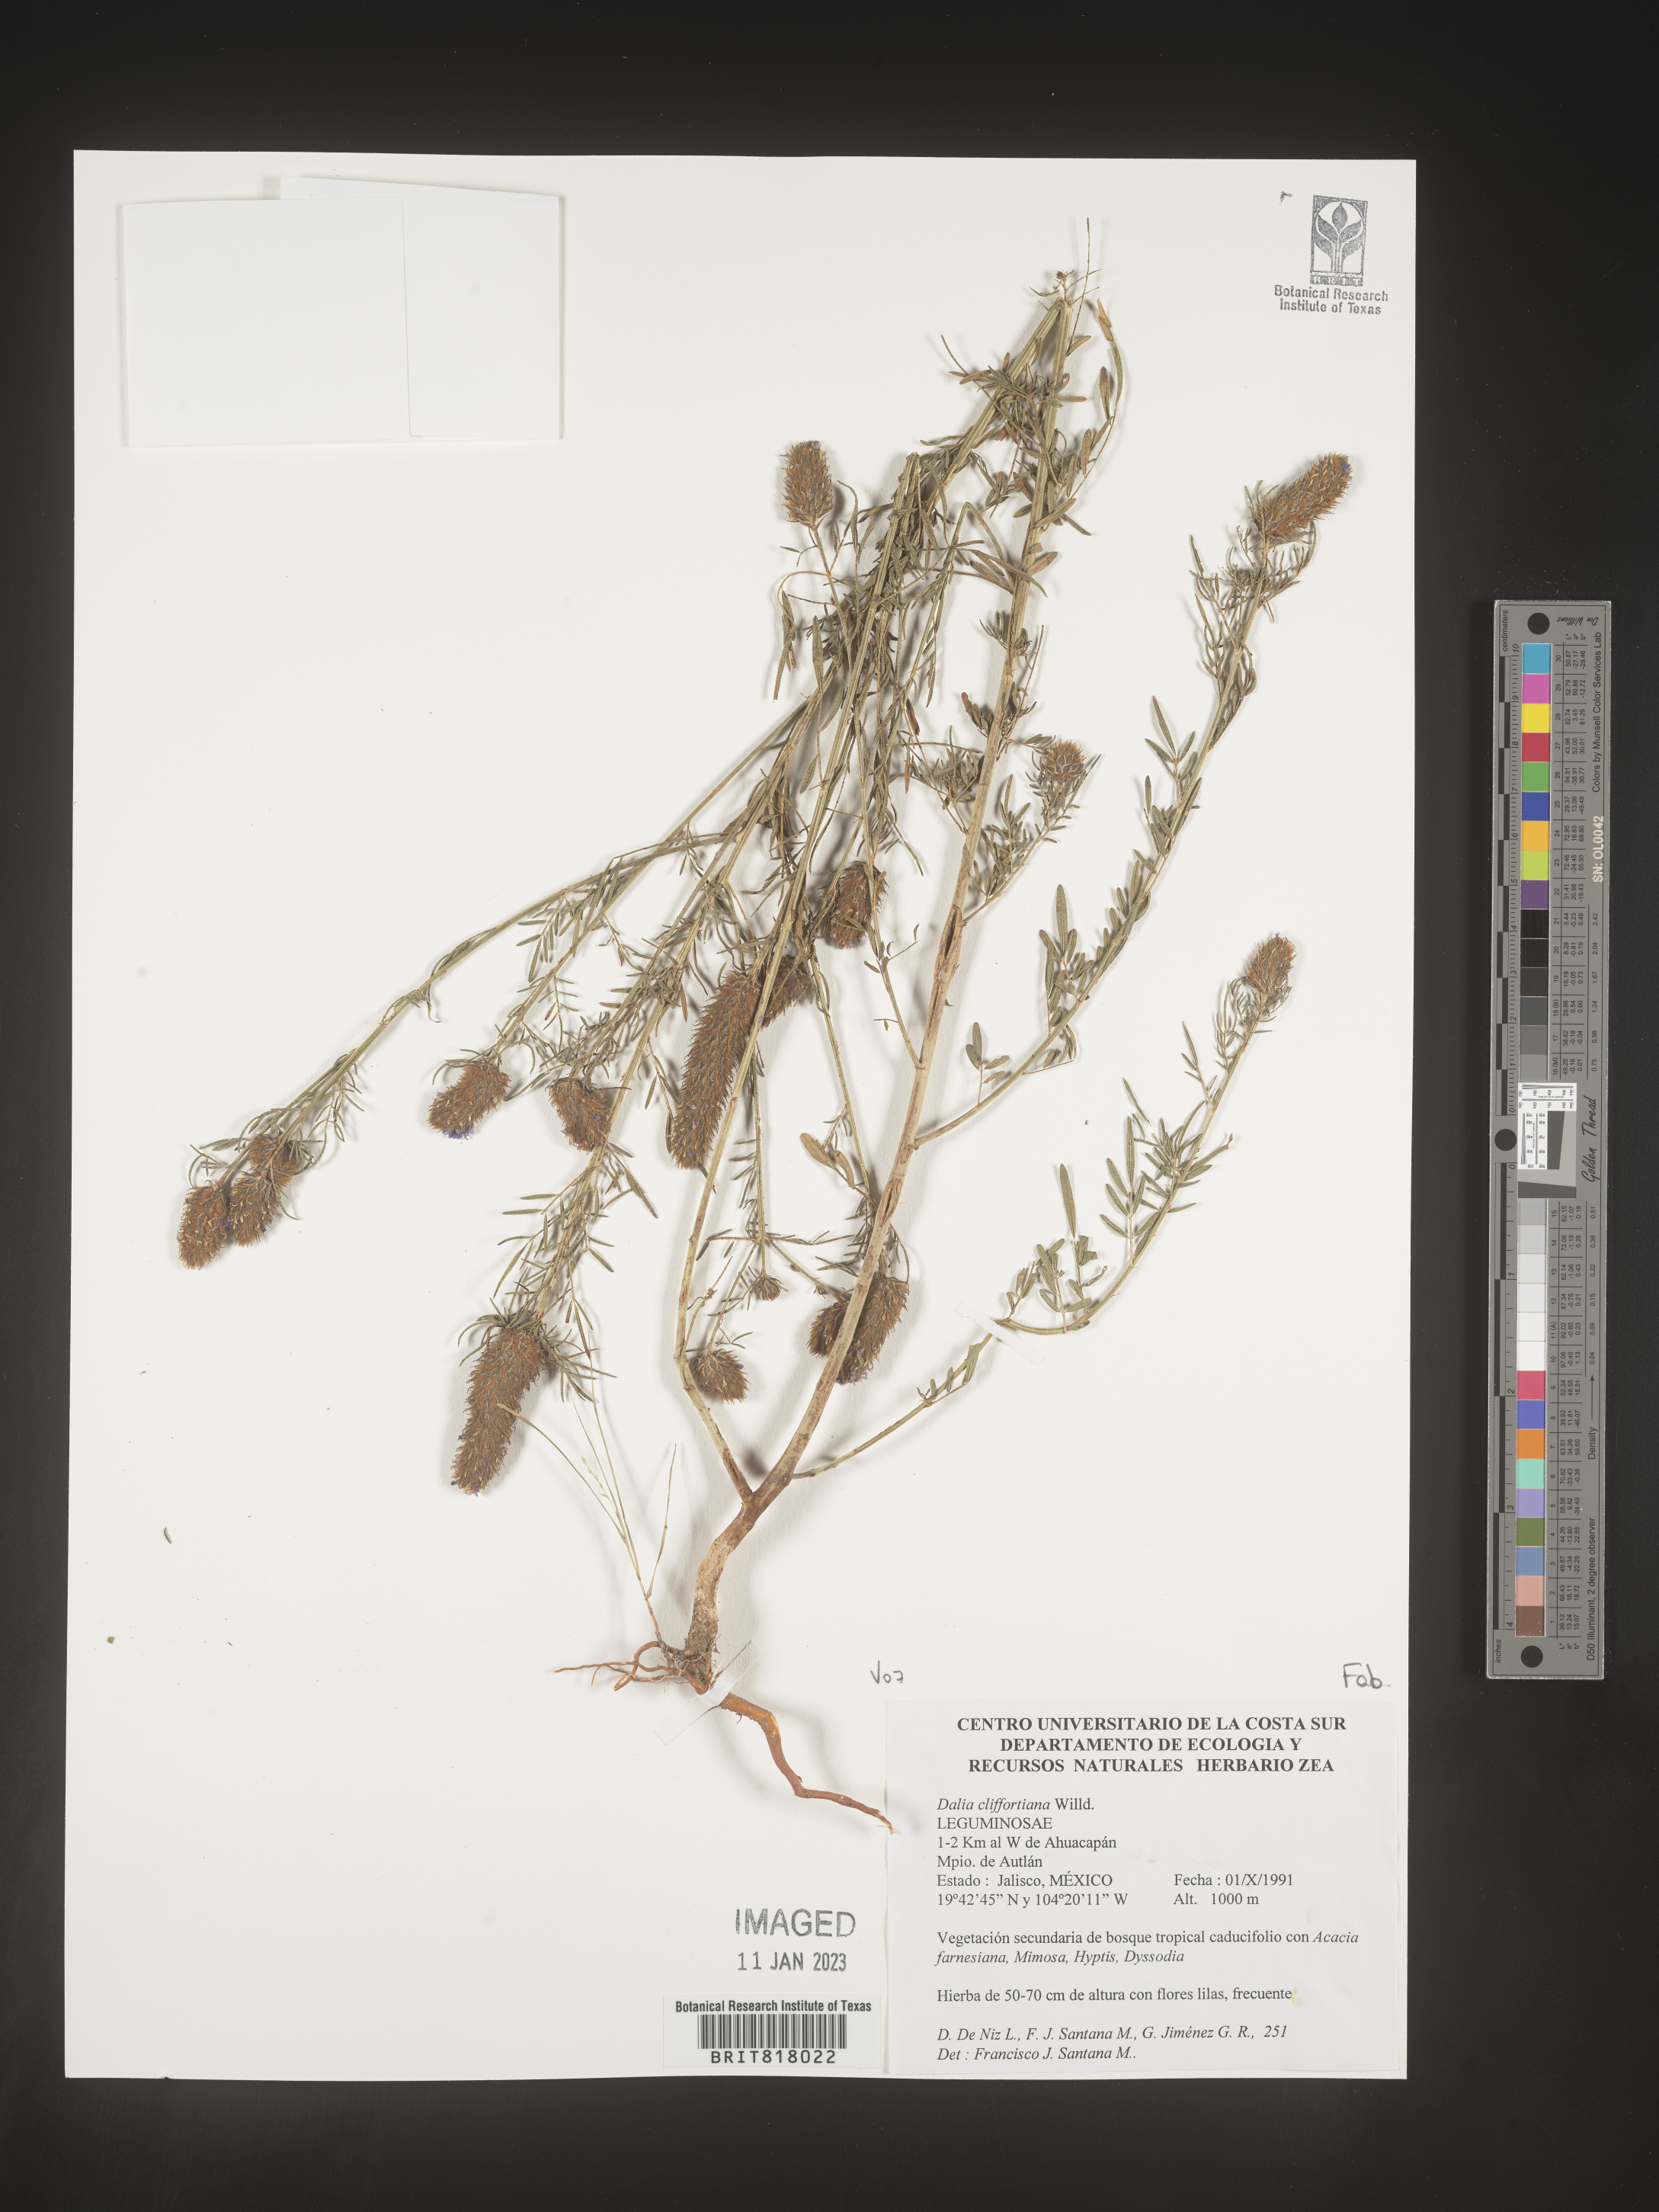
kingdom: Plantae
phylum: Tracheophyta
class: Magnoliopsida
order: Fabales
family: Fabaceae
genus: Dalea
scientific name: Dalea
